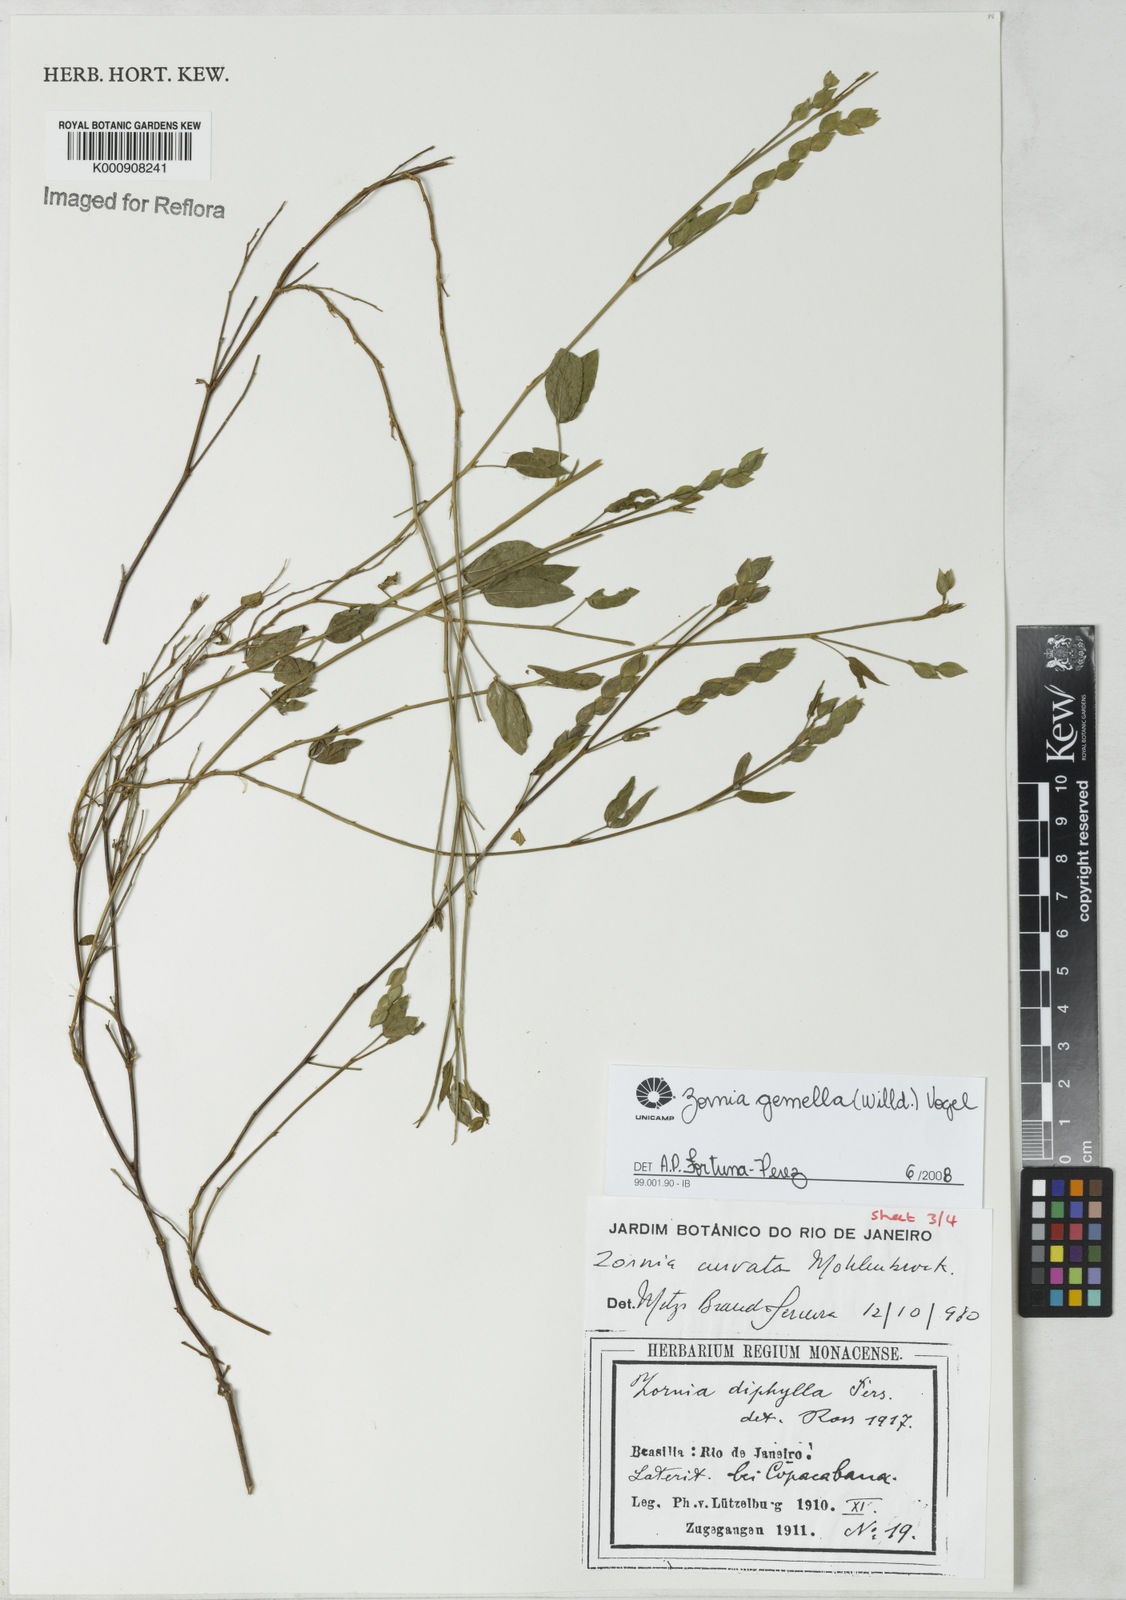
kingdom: Plantae
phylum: Tracheophyta
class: Magnoliopsida
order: Fabales
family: Fabaceae
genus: Zornia
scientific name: Zornia latifolia
